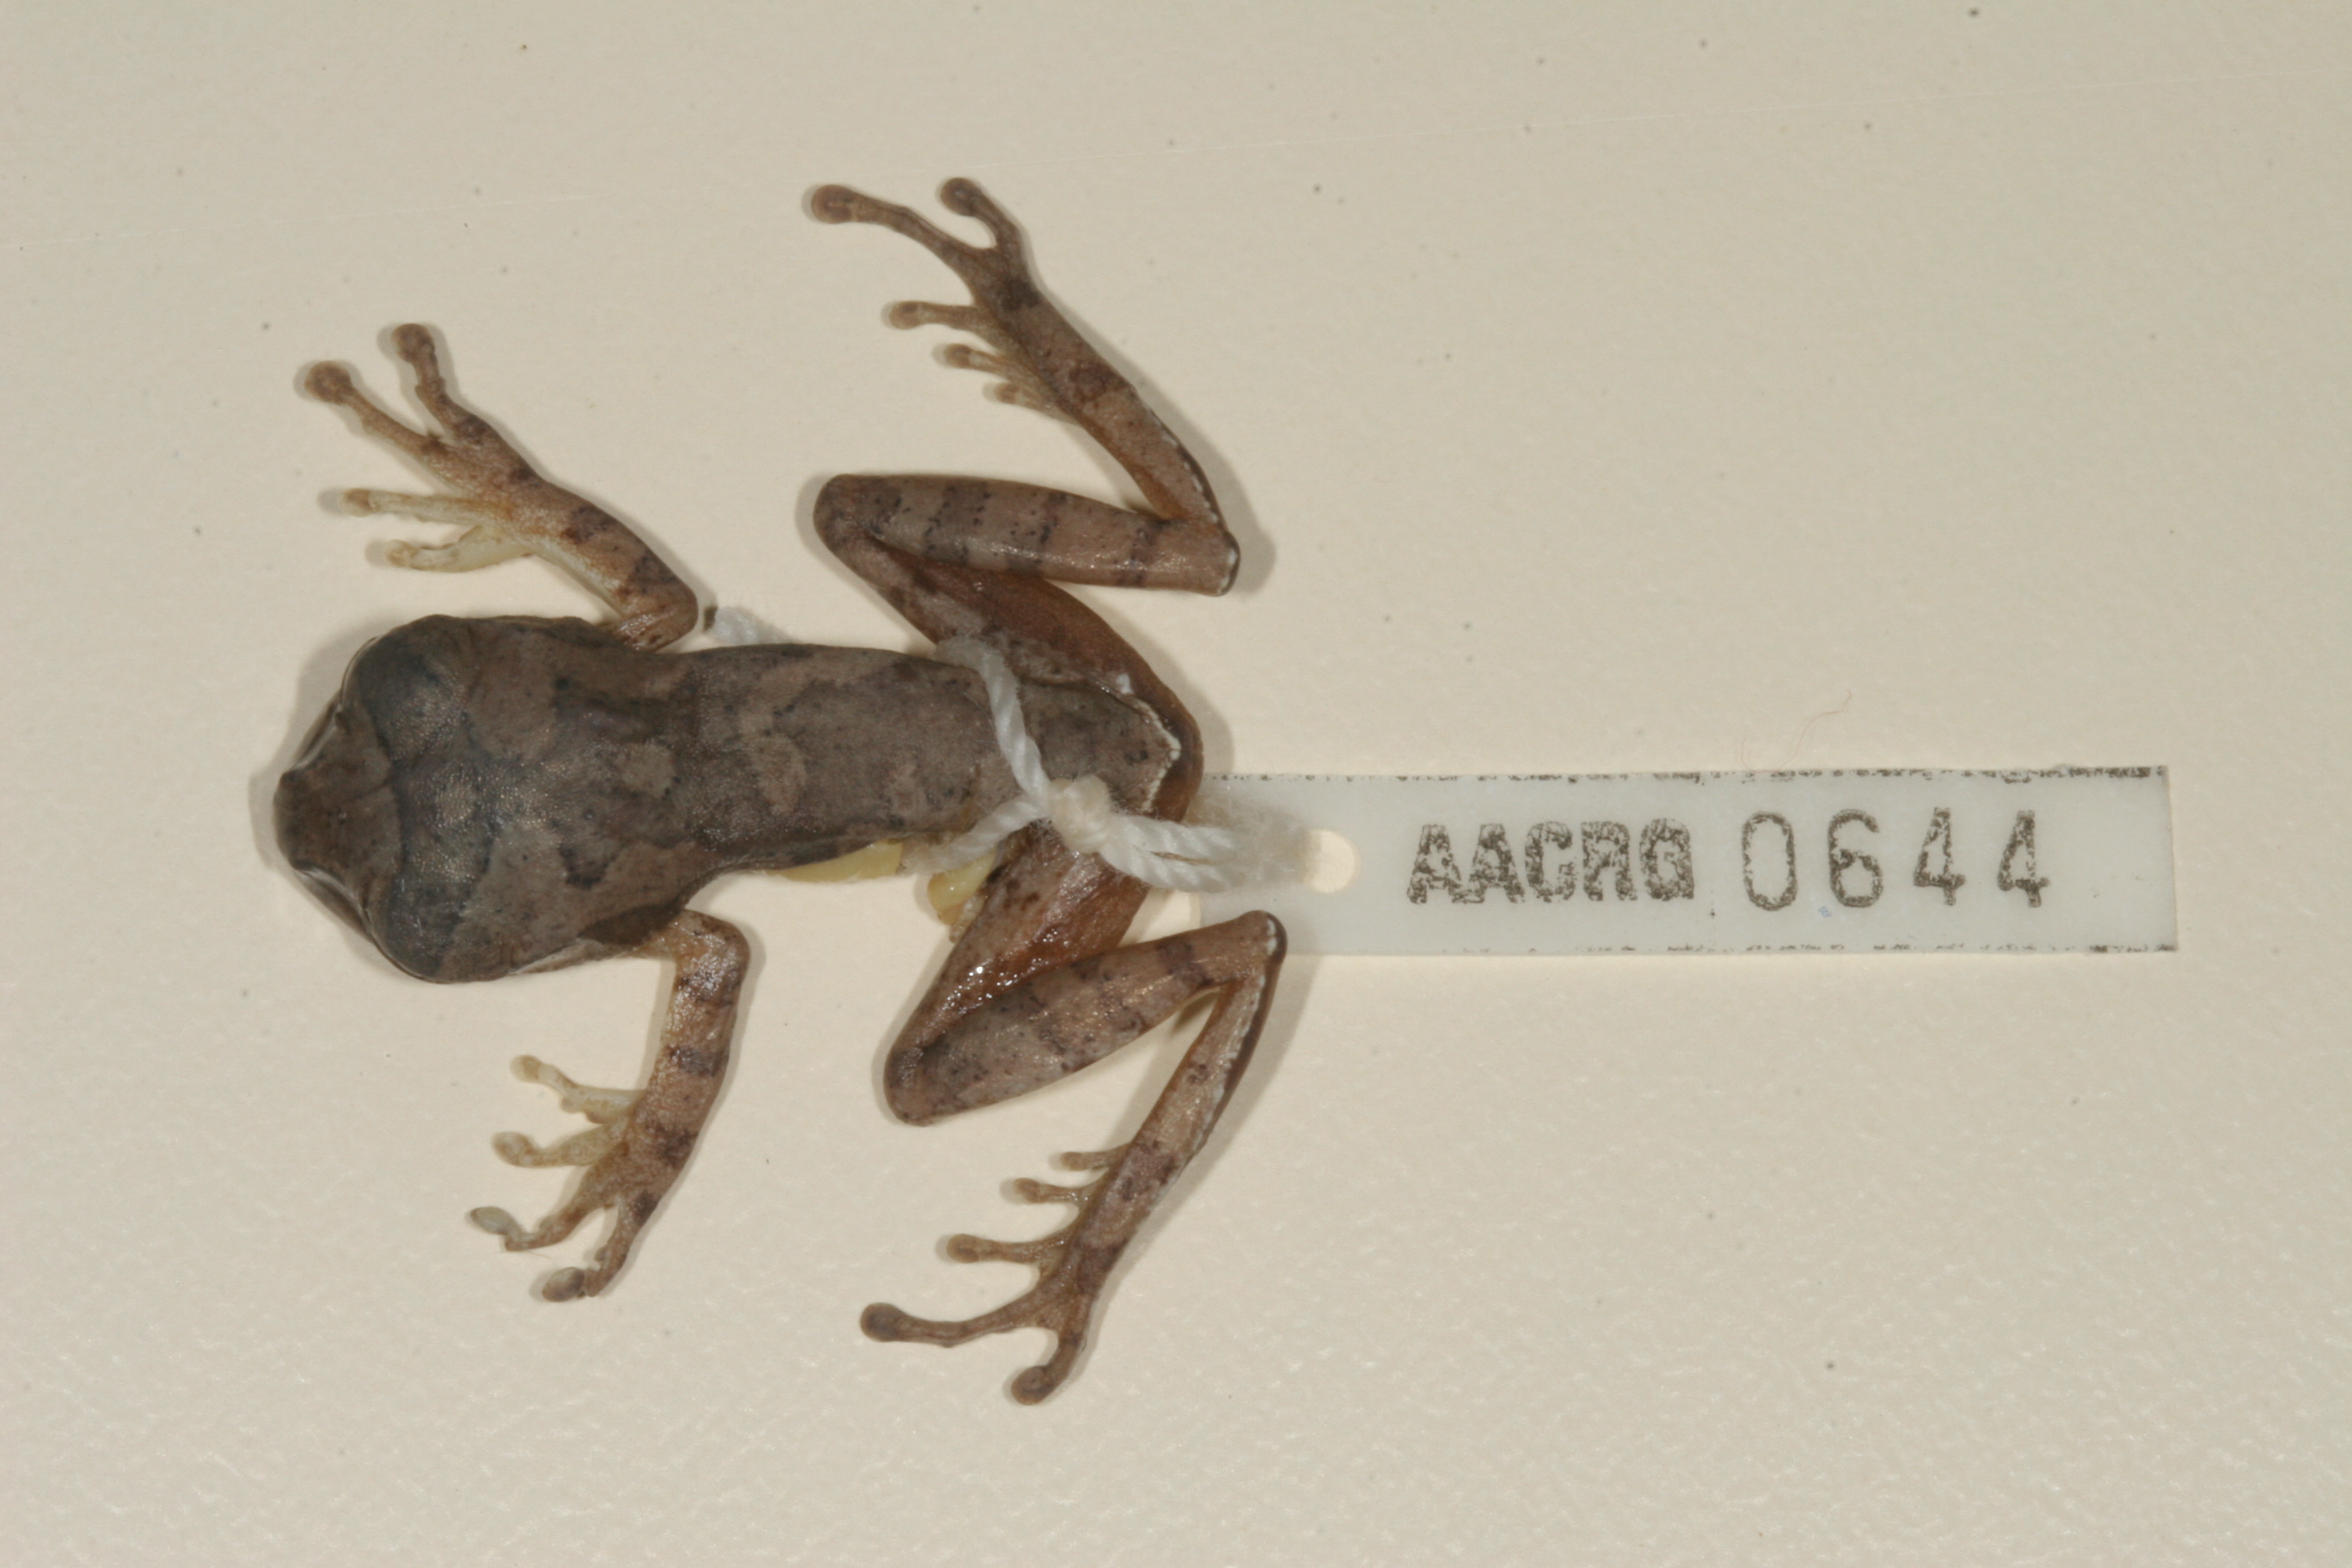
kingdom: Animalia
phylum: Chordata
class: Amphibia
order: Anura
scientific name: Anura
